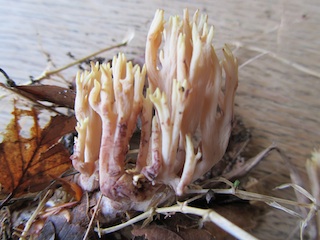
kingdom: Fungi
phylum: Basidiomycota
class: Agaricomycetes
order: Gomphales
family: Gomphaceae
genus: Ramaria
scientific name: Ramaria stricta
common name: rank koralsvamp
